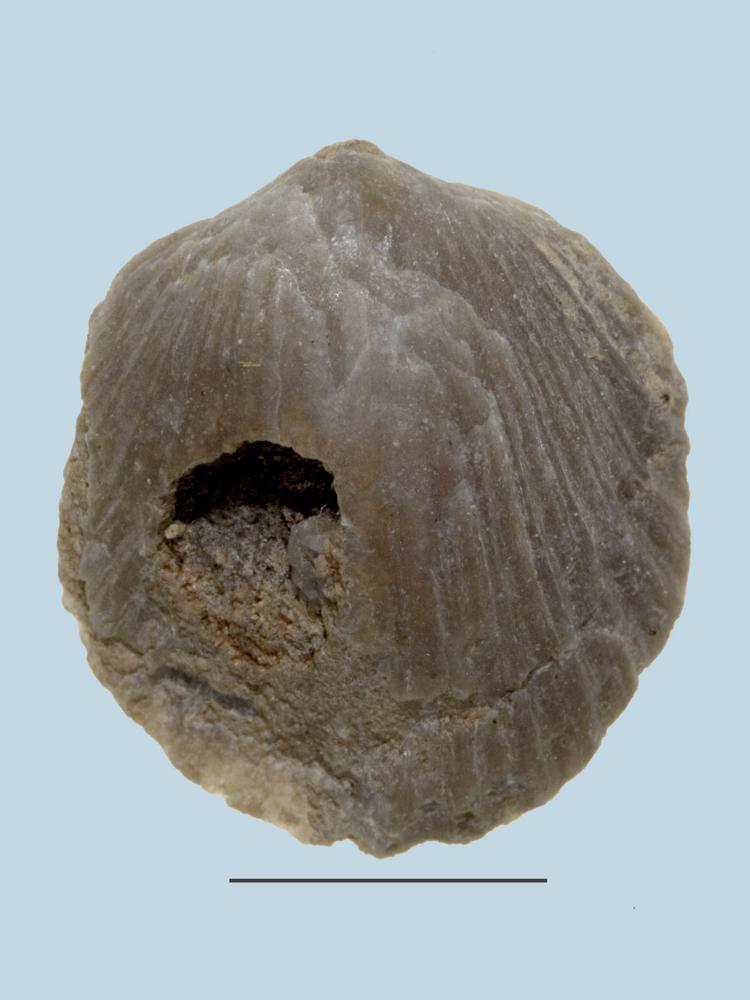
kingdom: Animalia
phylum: Brachiopoda
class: Rhynchonellata
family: Orthidae
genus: Orthambonites
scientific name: Orthambonites Orthis calligramma
